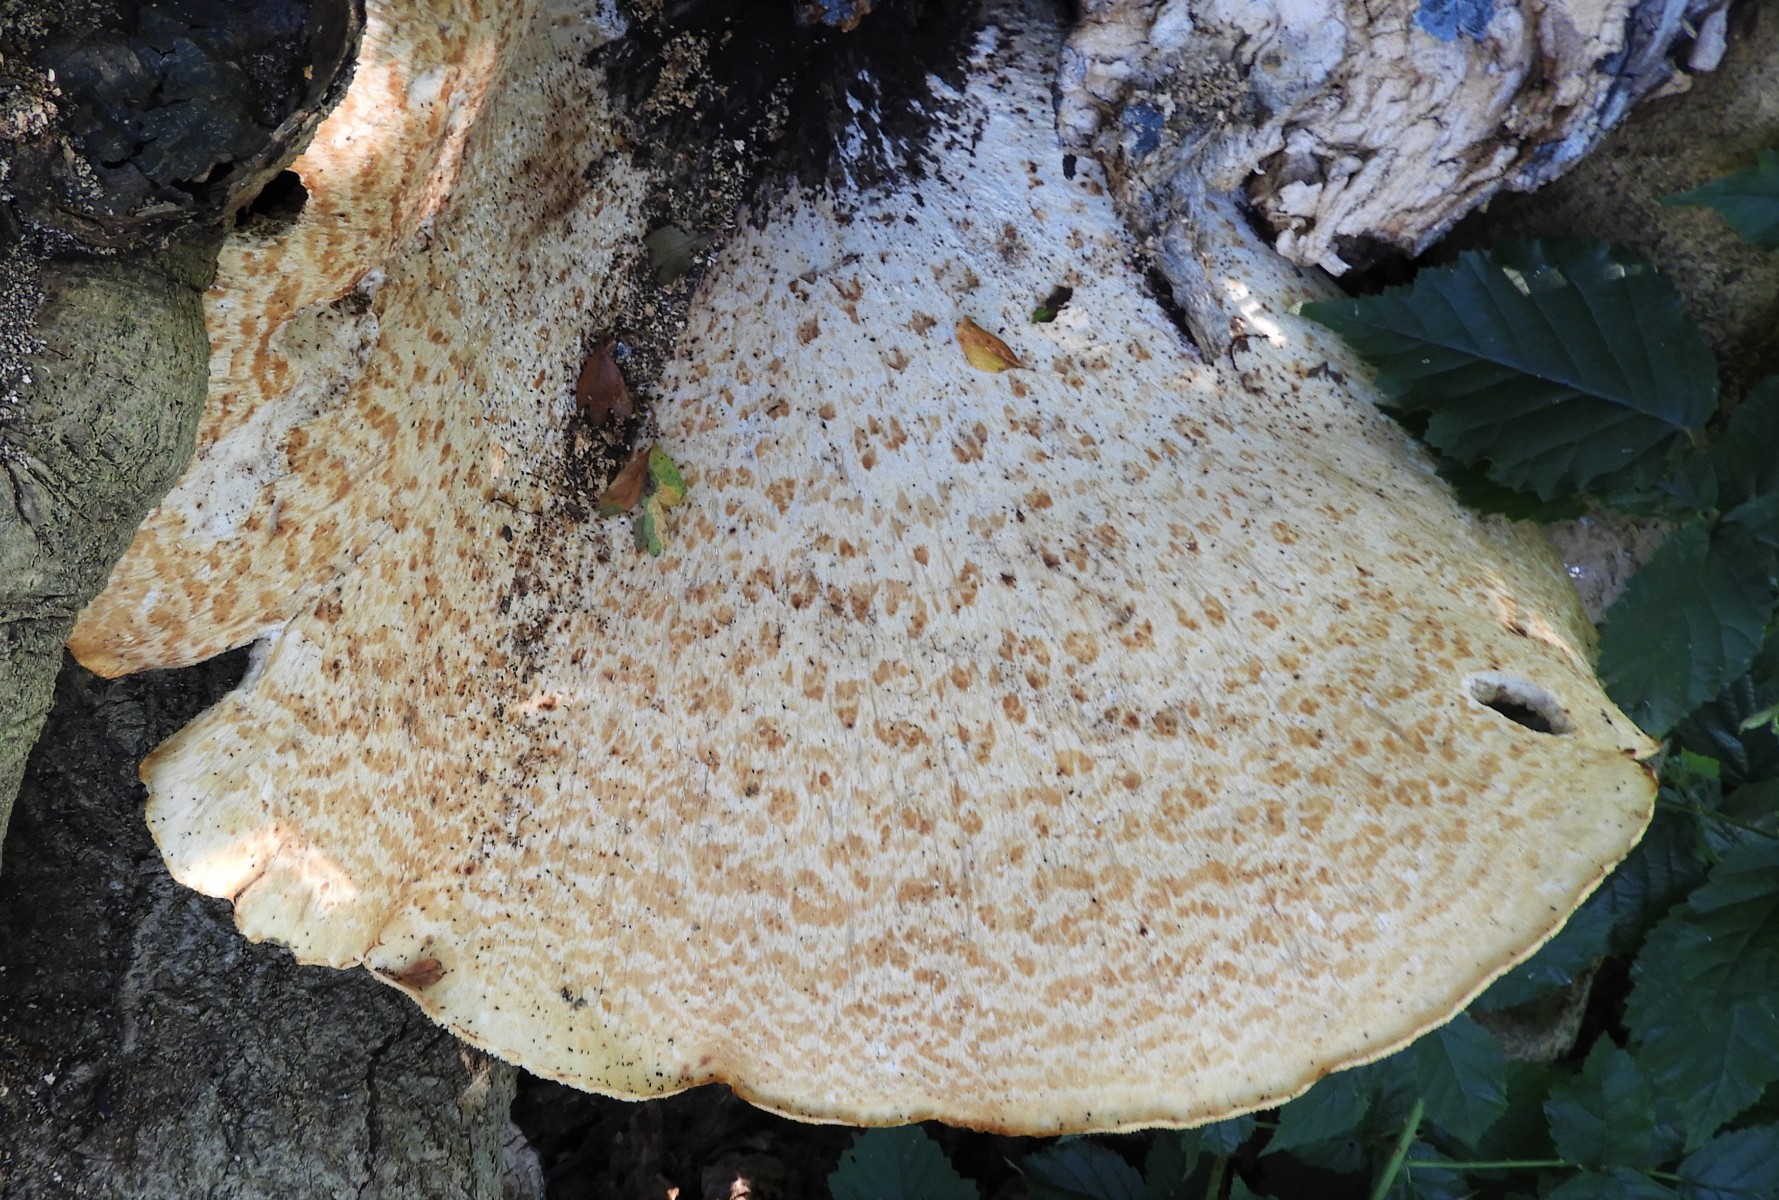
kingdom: Fungi
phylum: Basidiomycota
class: Agaricomycetes
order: Polyporales
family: Polyporaceae
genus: Cerioporus
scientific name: Cerioporus squamosus
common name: skællet stilkporesvamp
